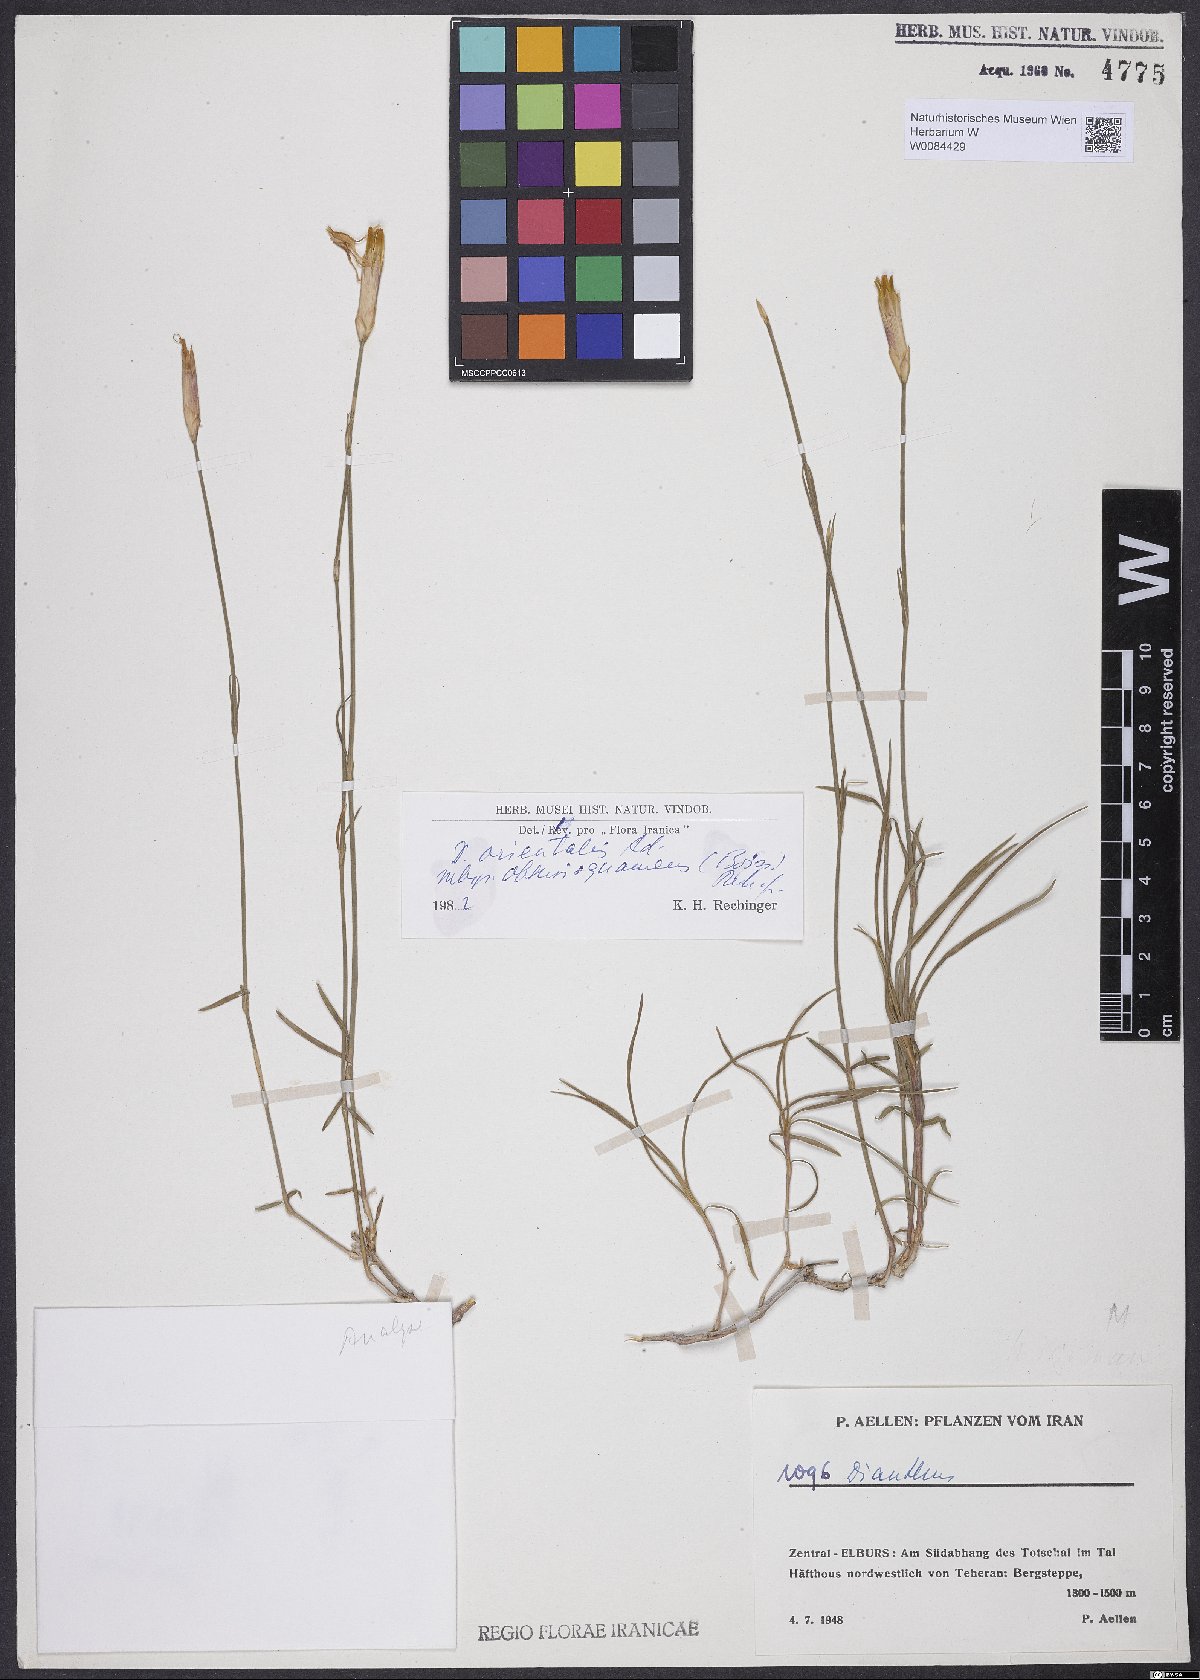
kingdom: Plantae
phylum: Tracheophyta
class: Magnoliopsida
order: Caryophyllales
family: Caryophyllaceae
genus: Dianthus
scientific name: Dianthus orientalis
